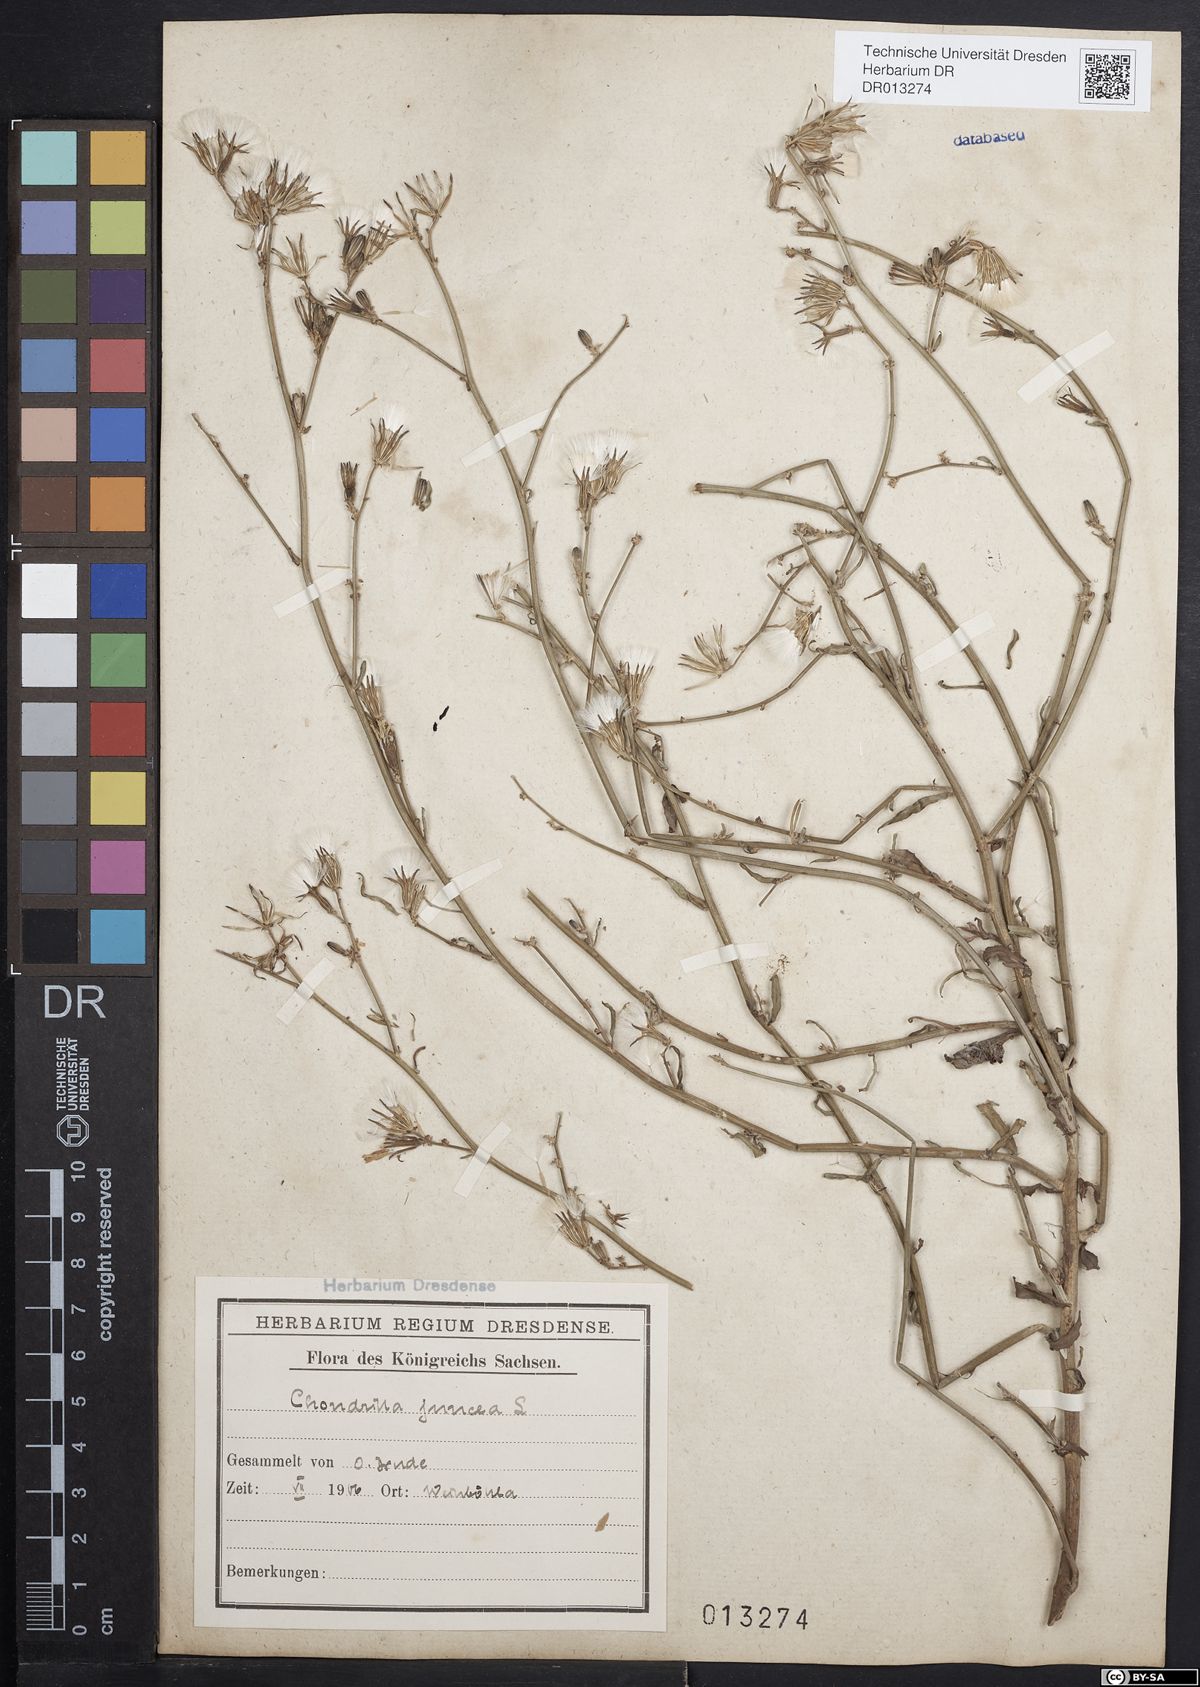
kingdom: Plantae
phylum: Tracheophyta
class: Magnoliopsida
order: Asterales
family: Asteraceae
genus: Chondrilla
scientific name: Chondrilla juncea
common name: Skeleton weed
